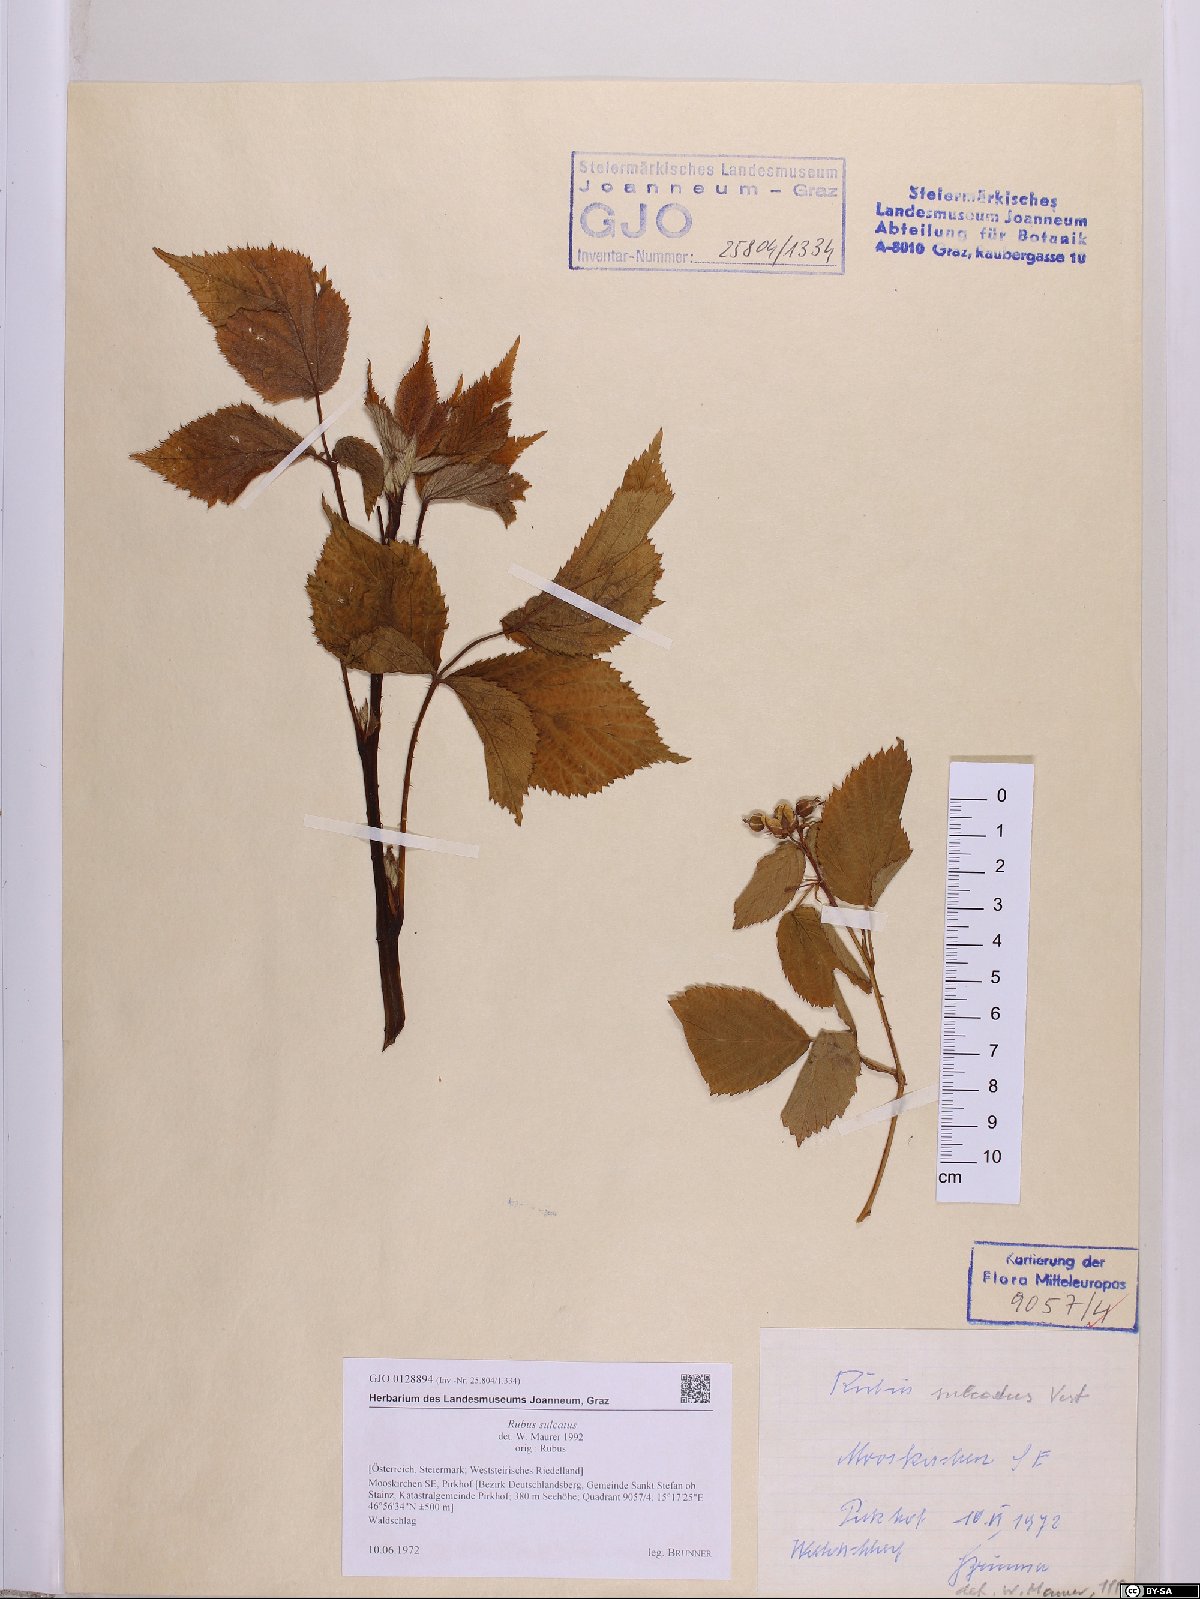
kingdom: Plantae
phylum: Tracheophyta
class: Magnoliopsida
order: Rosales
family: Rosaceae
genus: Rubus
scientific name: Rubus sulcatus
